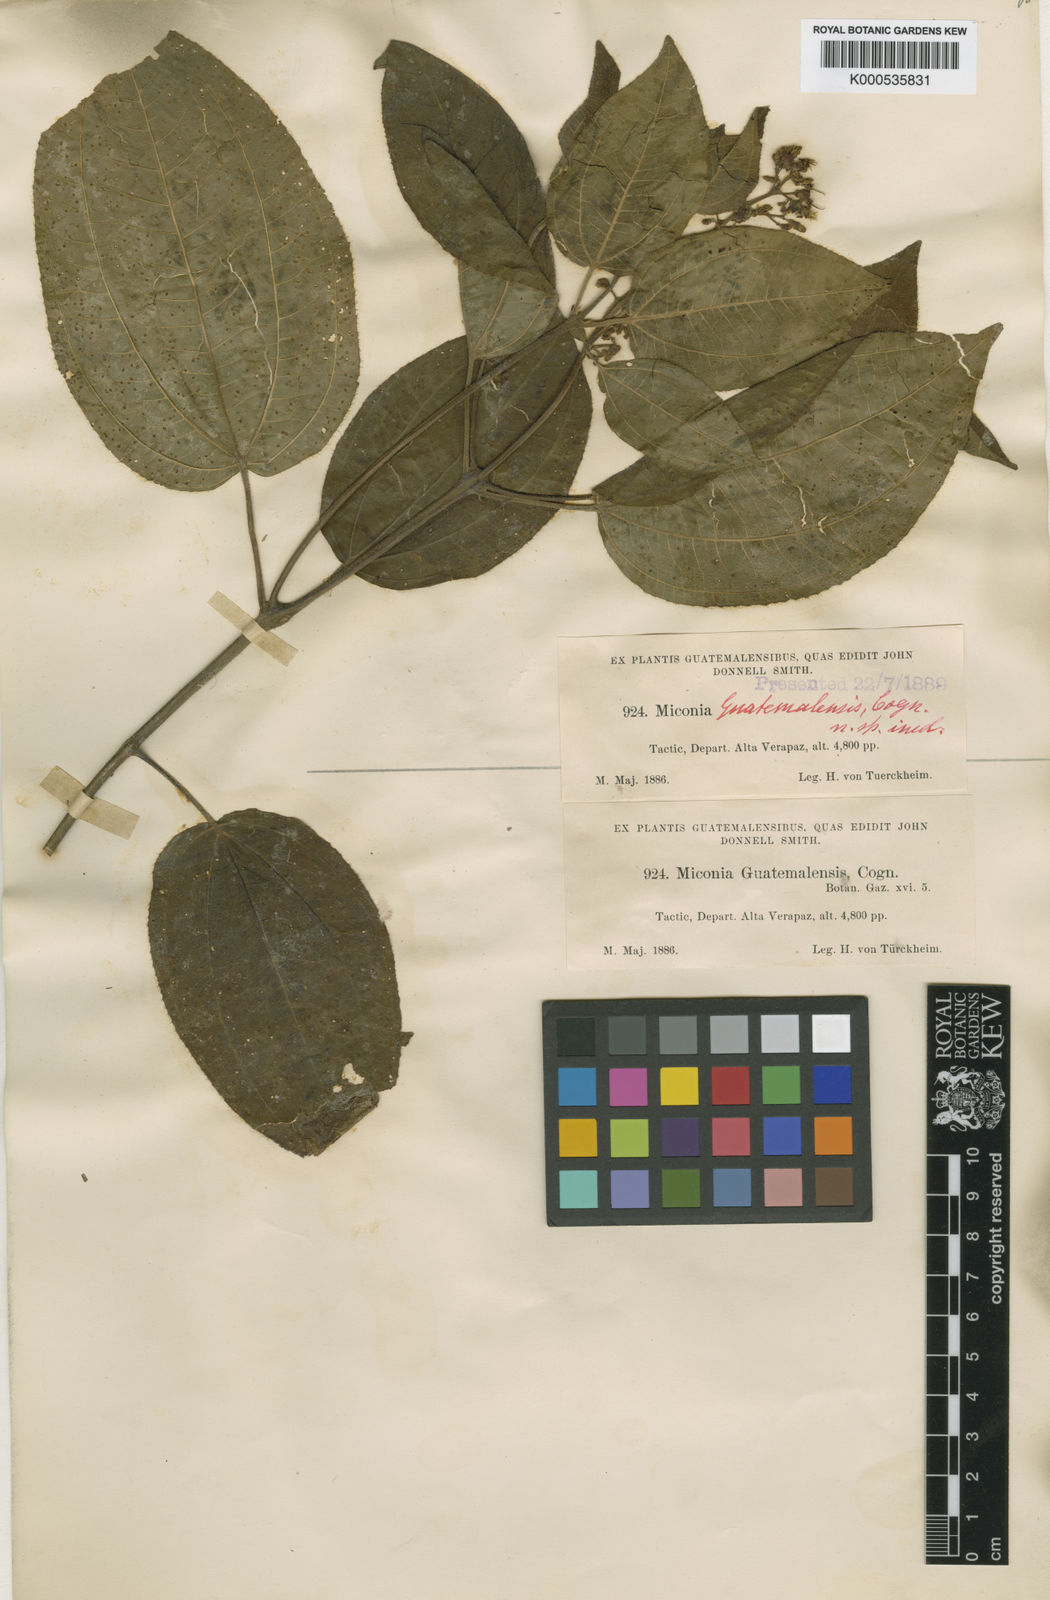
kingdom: Plantae
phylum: Tracheophyta
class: Magnoliopsida
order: Myrtales
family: Melastomataceae
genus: Miconia
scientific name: Miconia
